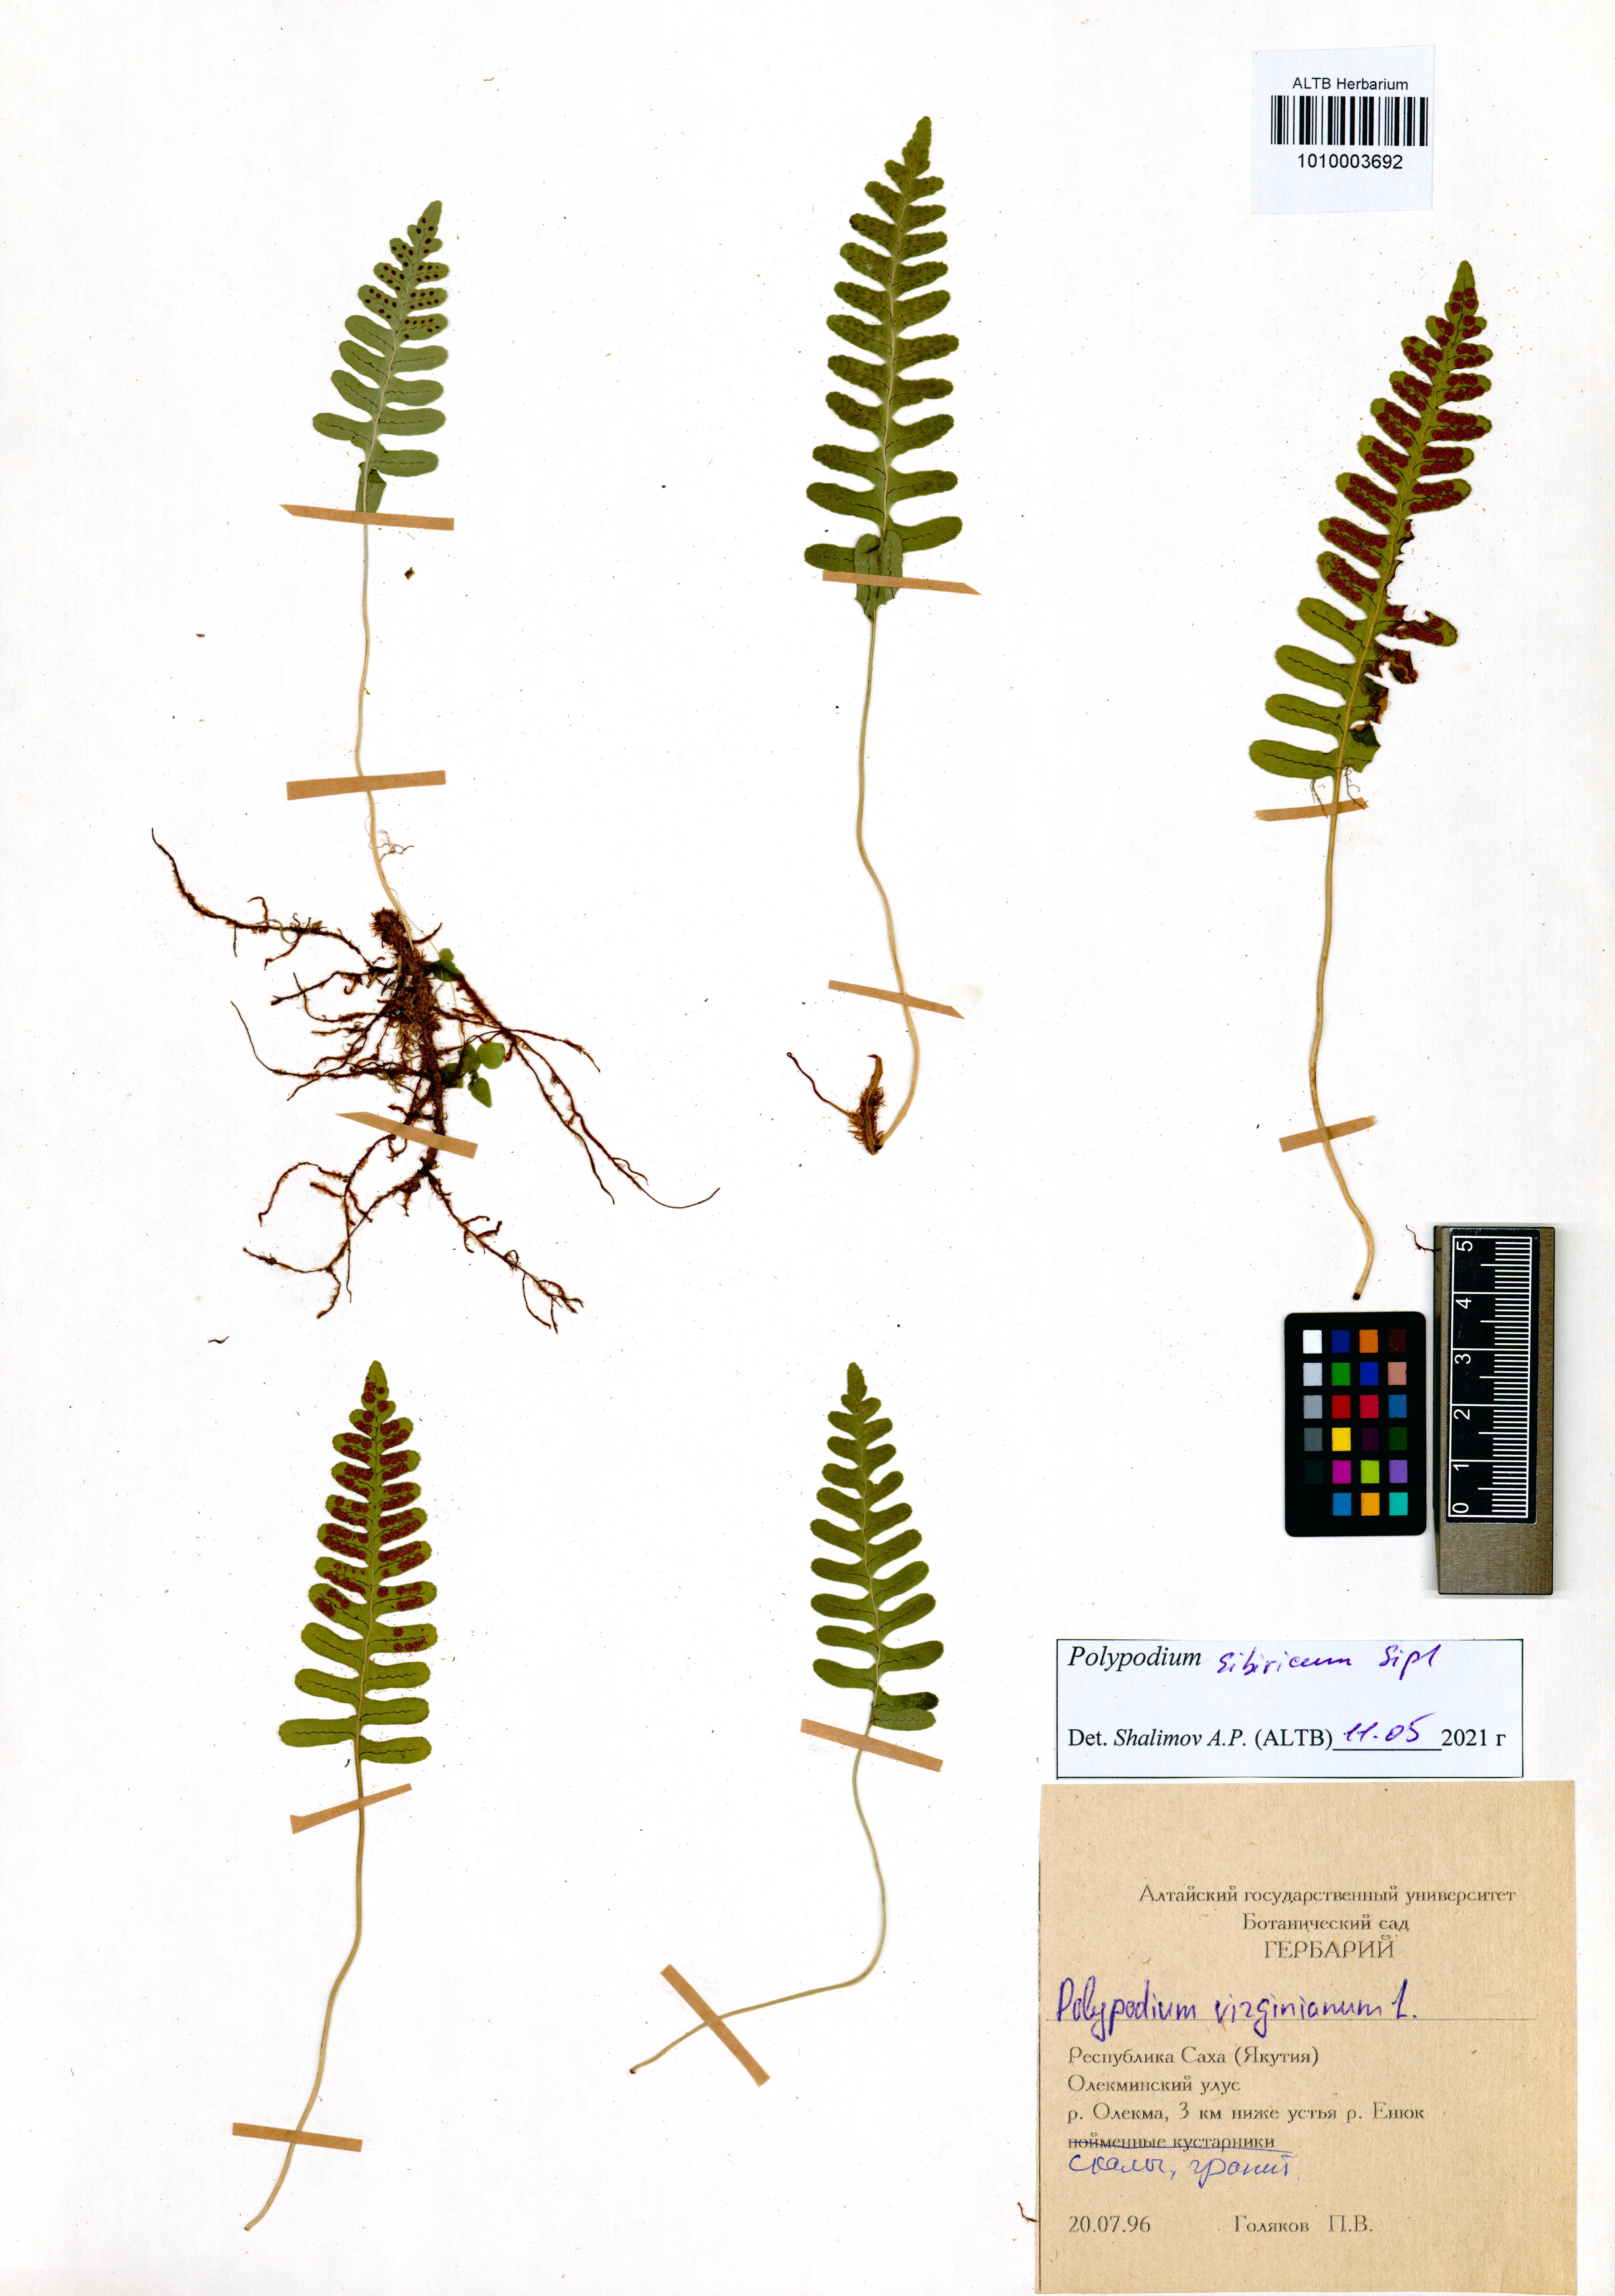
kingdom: Plantae
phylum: Tracheophyta
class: Polypodiopsida
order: Polypodiales
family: Polypodiaceae
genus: Polypodium
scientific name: Polypodium sibiricum
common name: Siberian polypody
